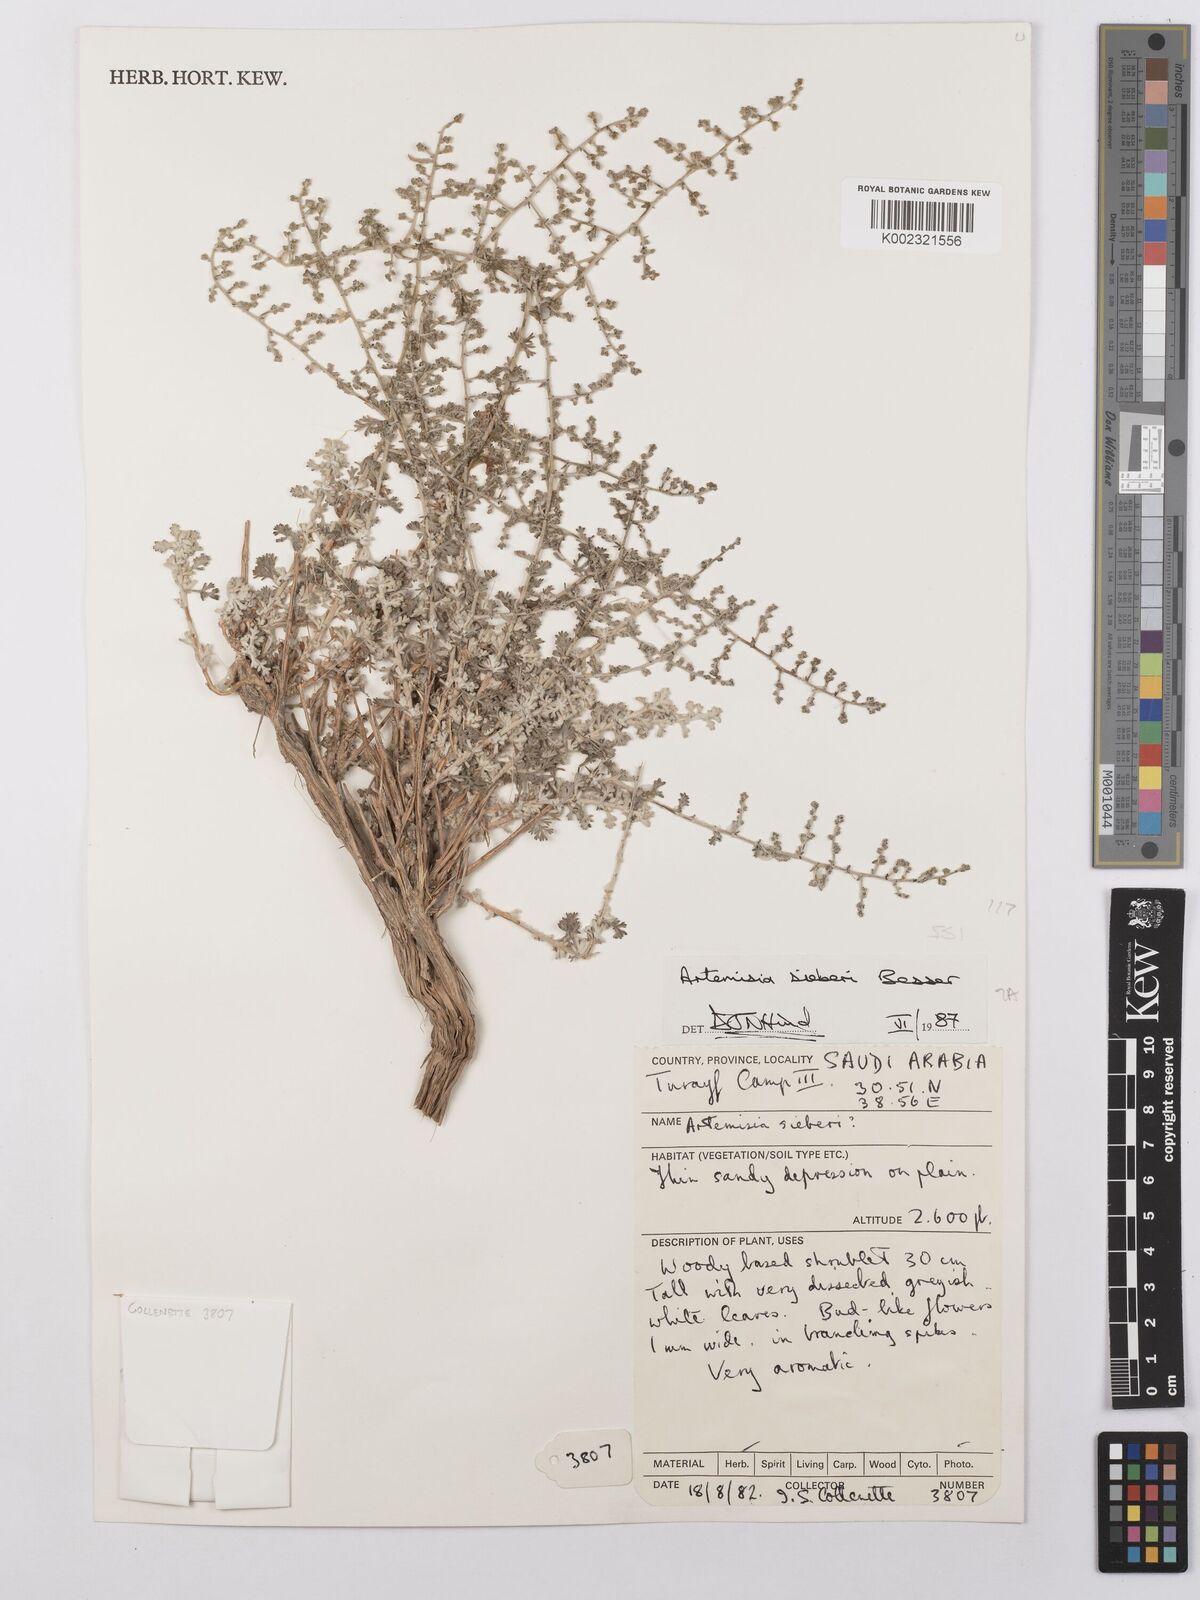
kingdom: Plantae
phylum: Tracheophyta
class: Magnoliopsida
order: Asterales
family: Asteraceae
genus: Artemisia
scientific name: Artemisia sieberi
